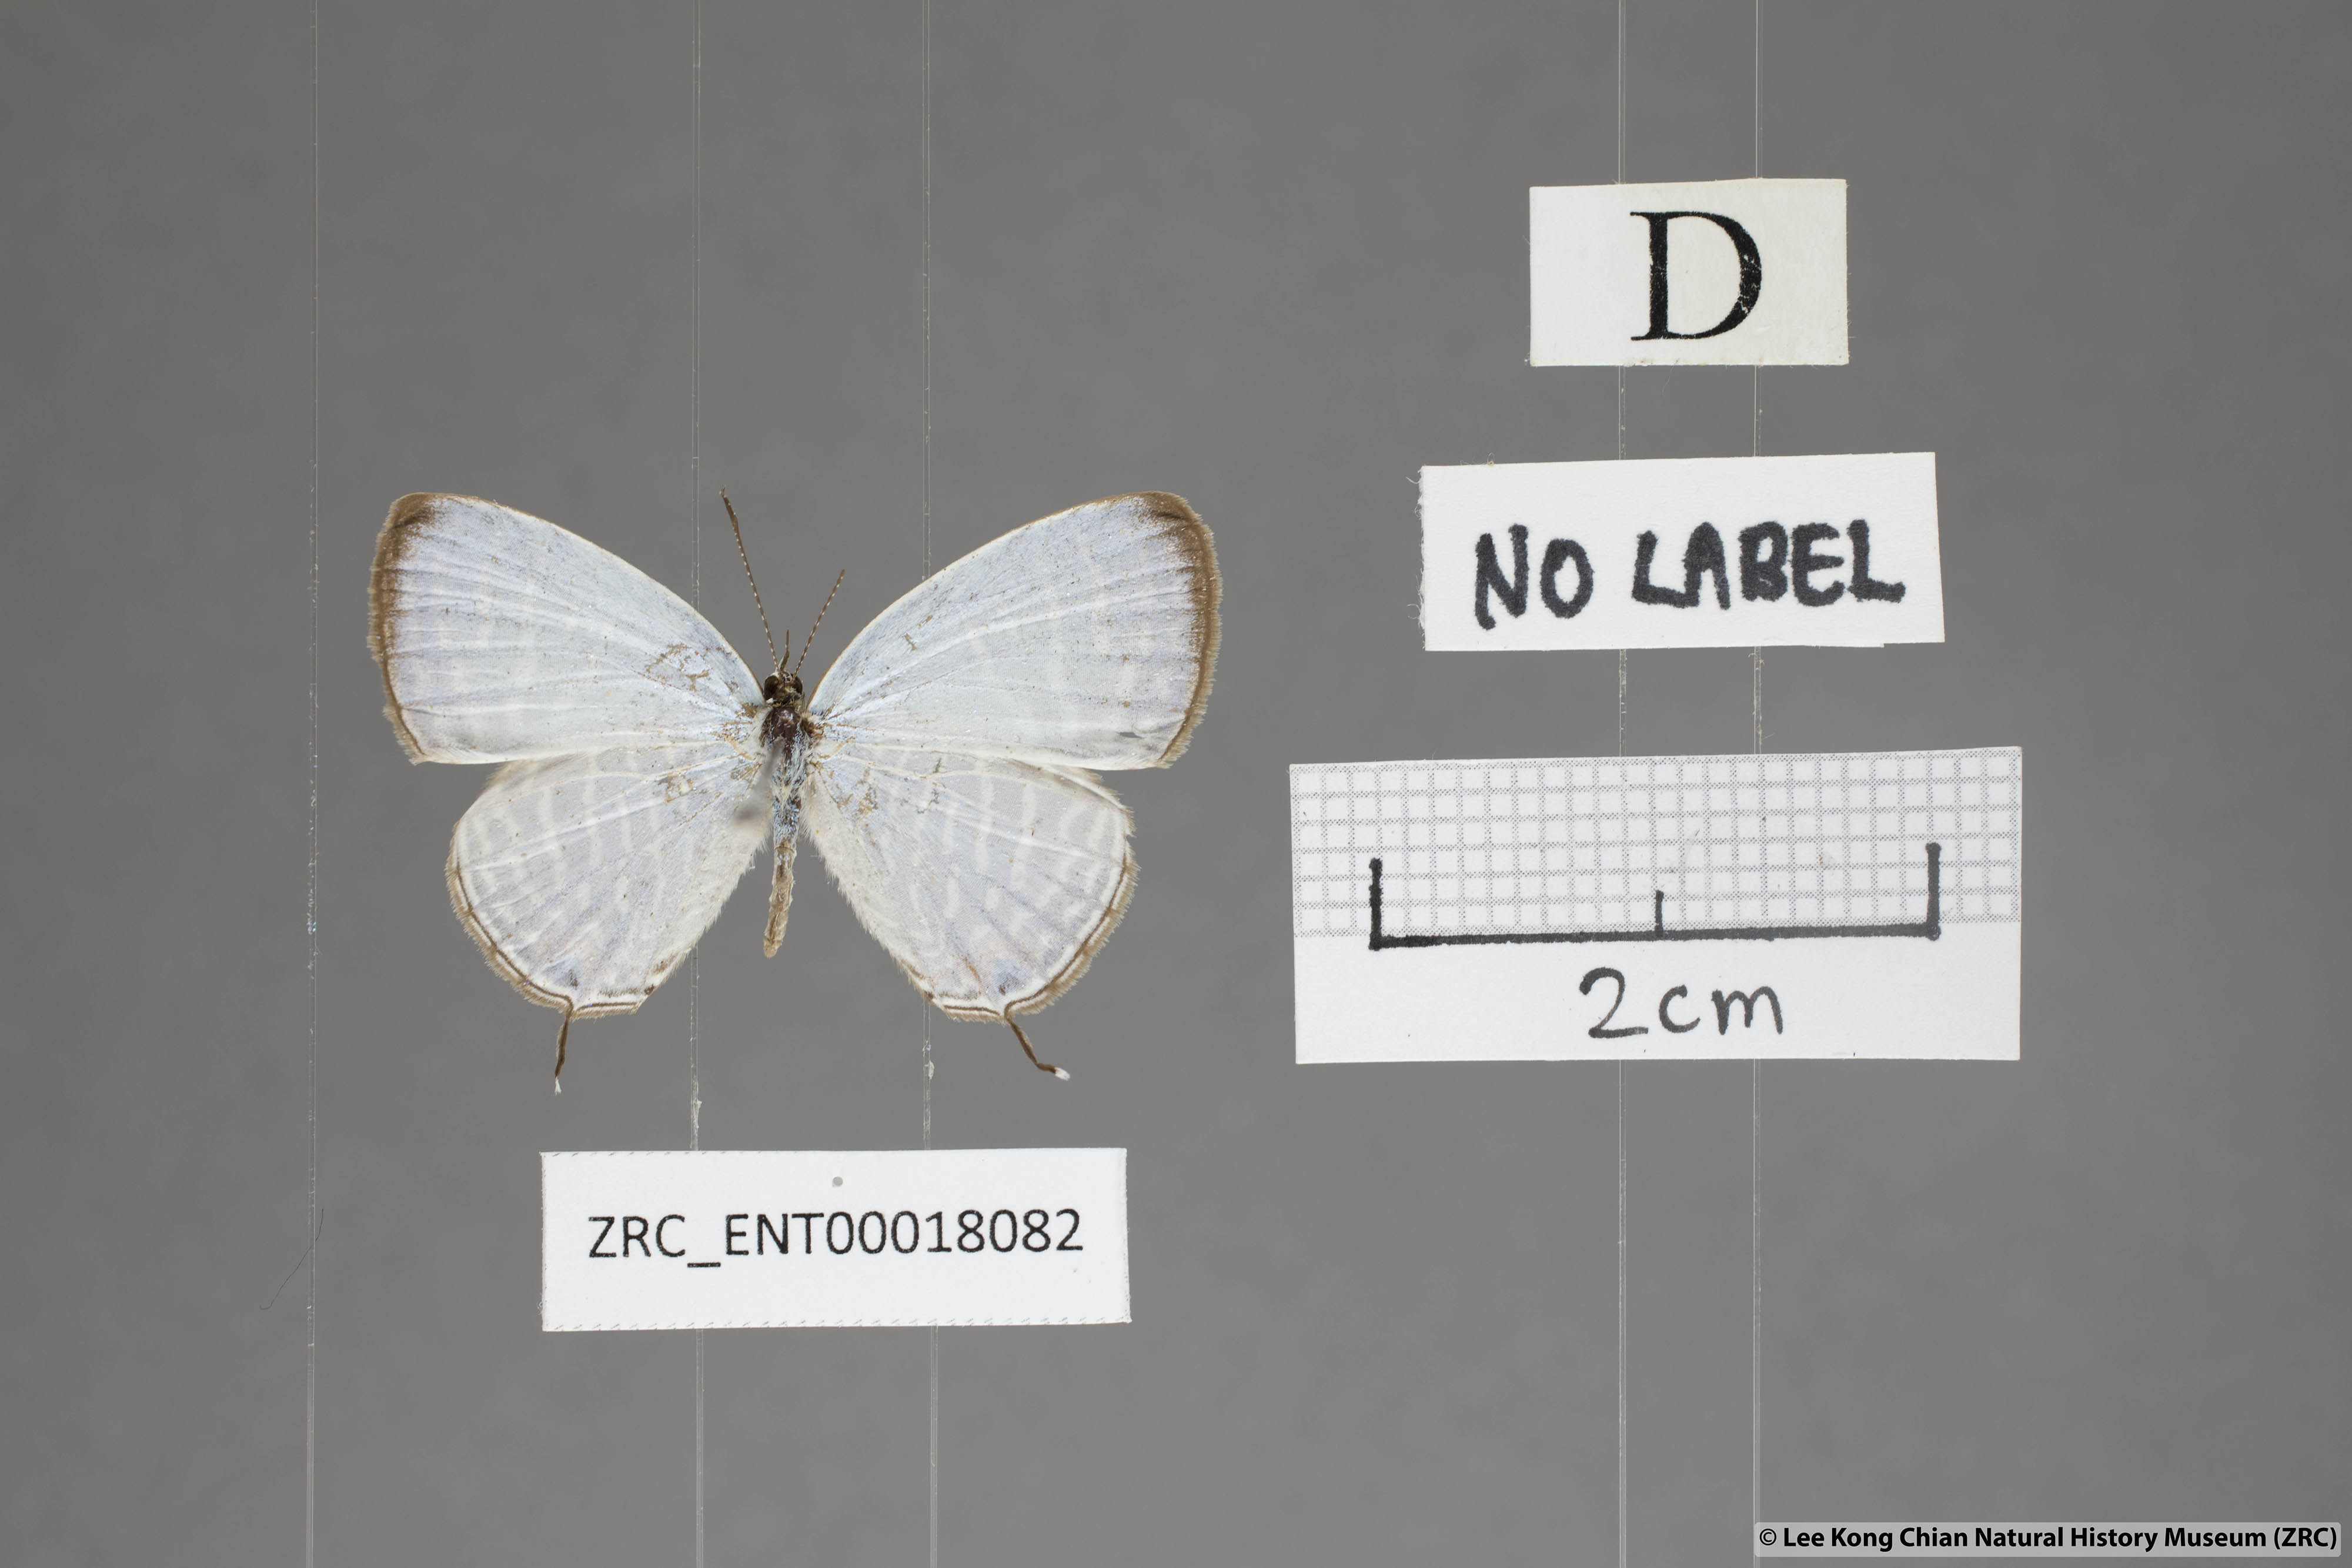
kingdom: Animalia
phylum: Arthropoda
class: Insecta
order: Lepidoptera
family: Lycaenidae
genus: Jamides
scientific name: Jamides celeno
